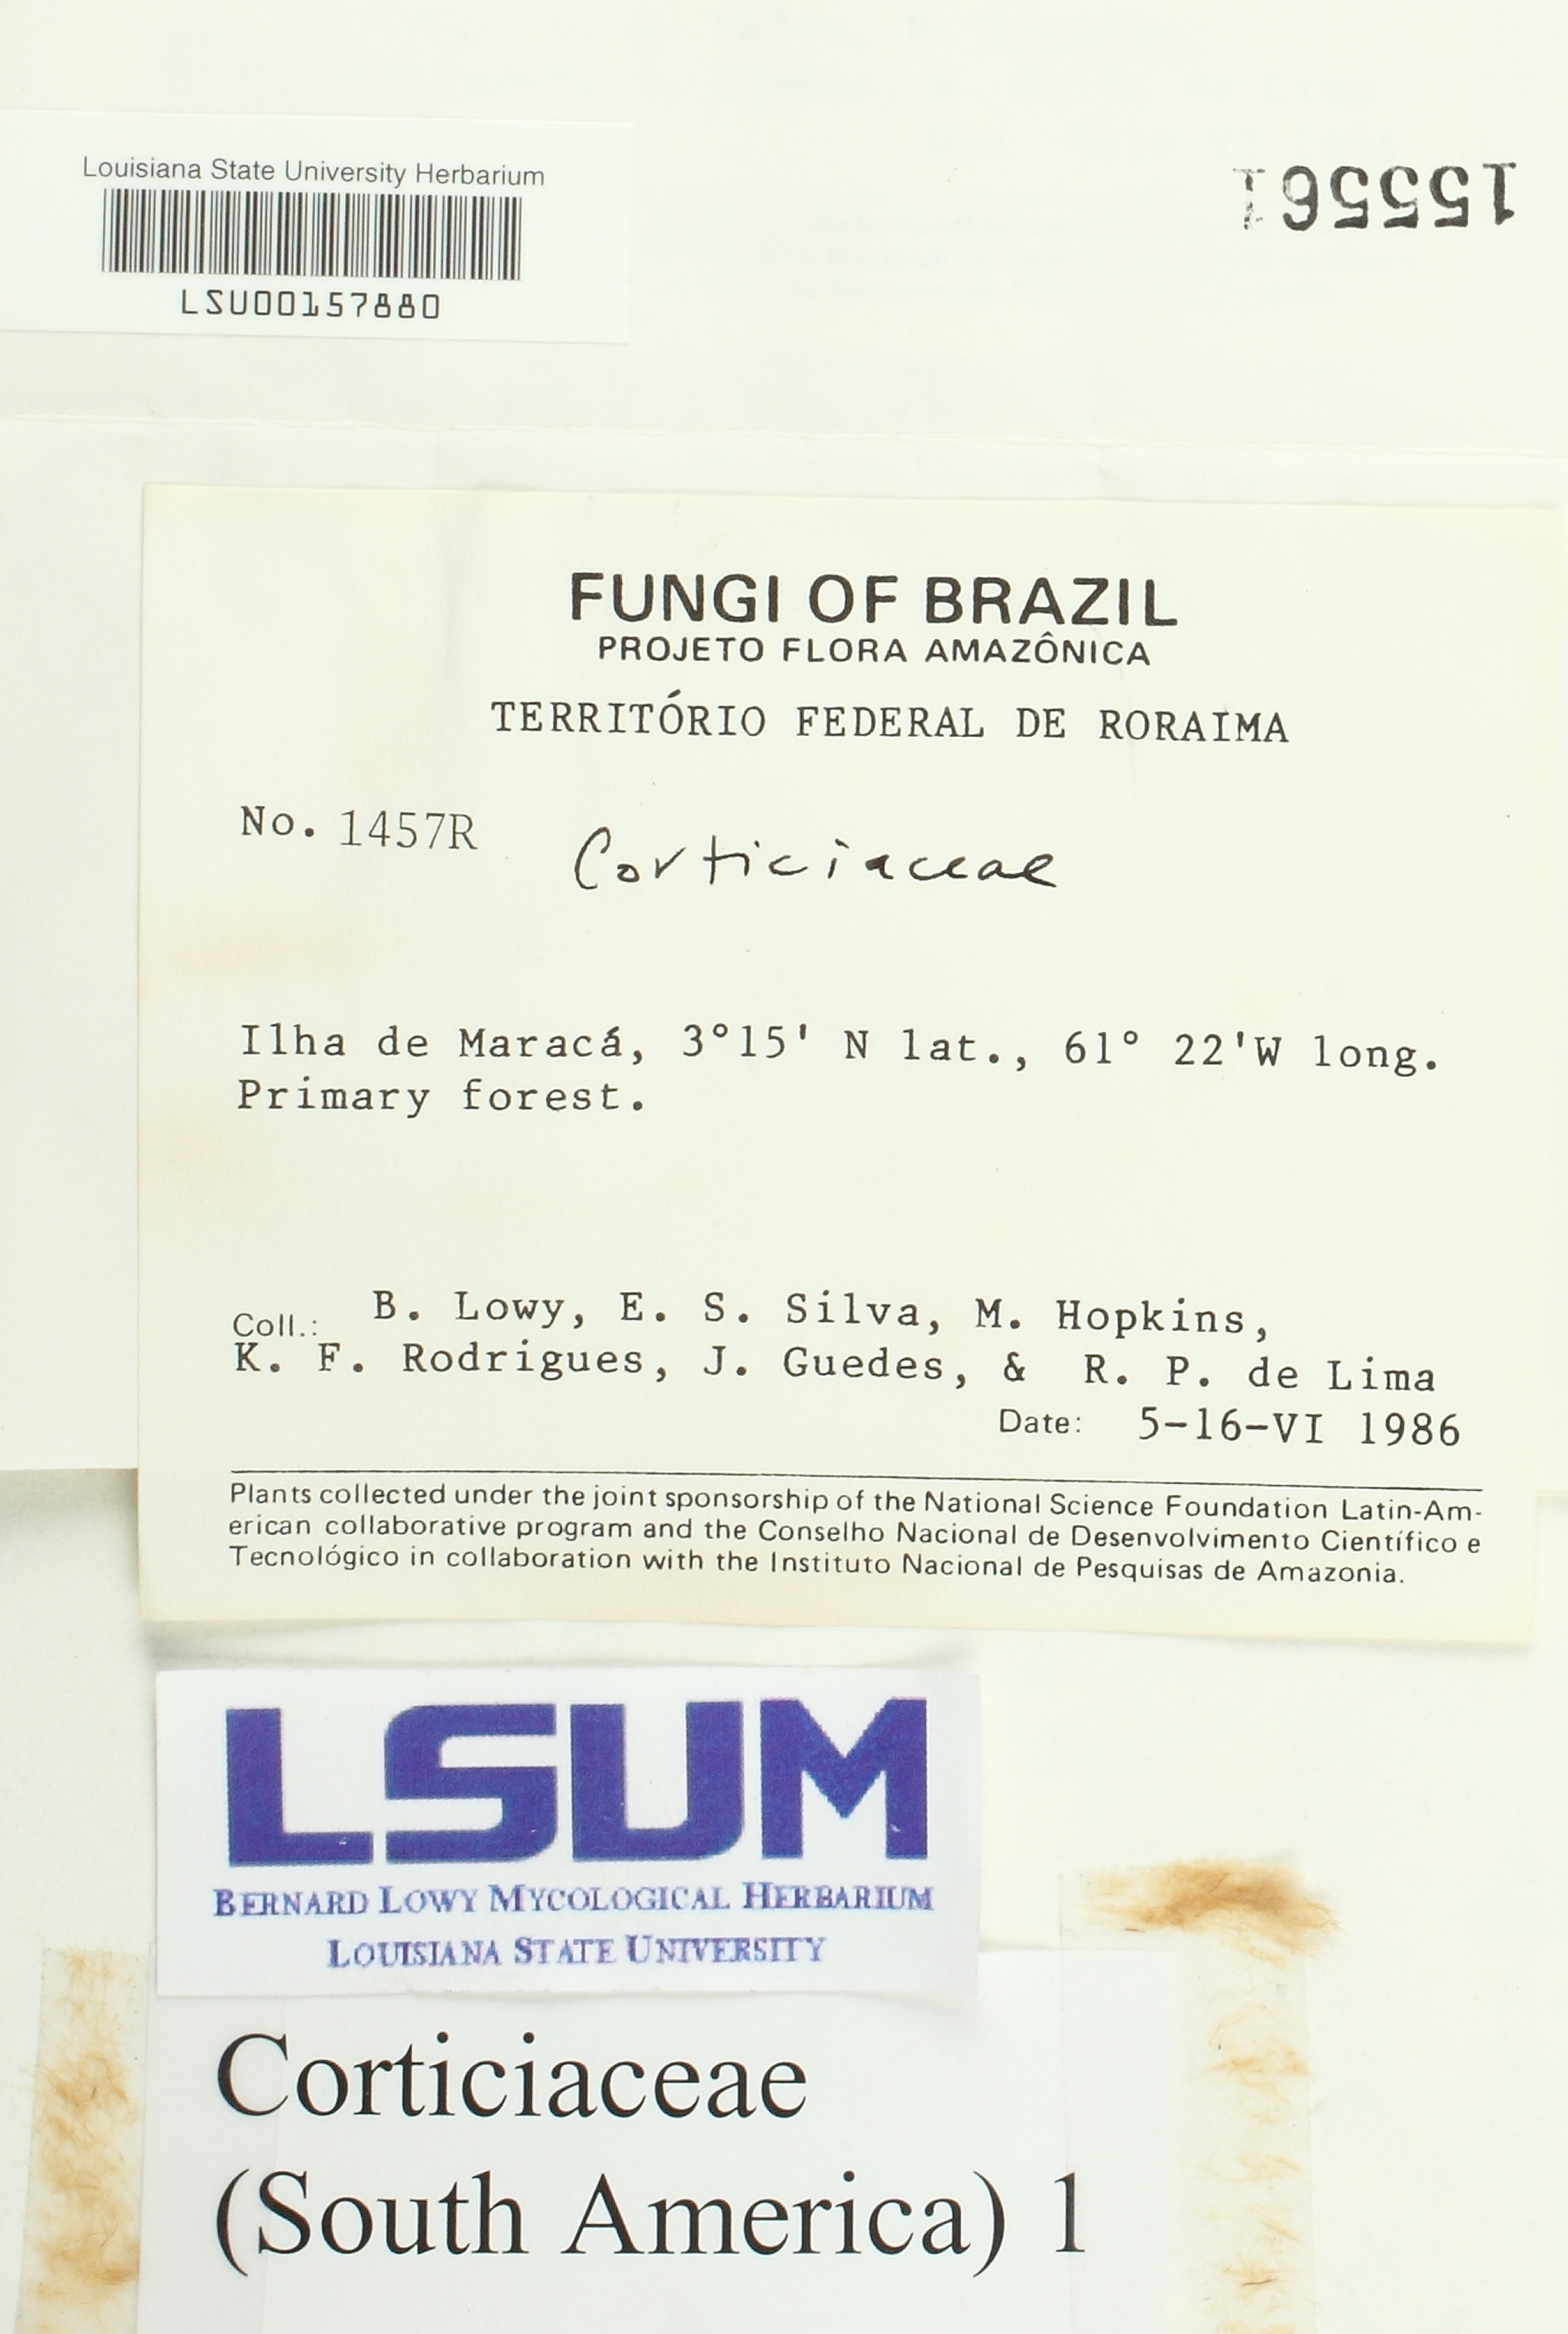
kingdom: Fungi
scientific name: Fungi
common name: Fungi
